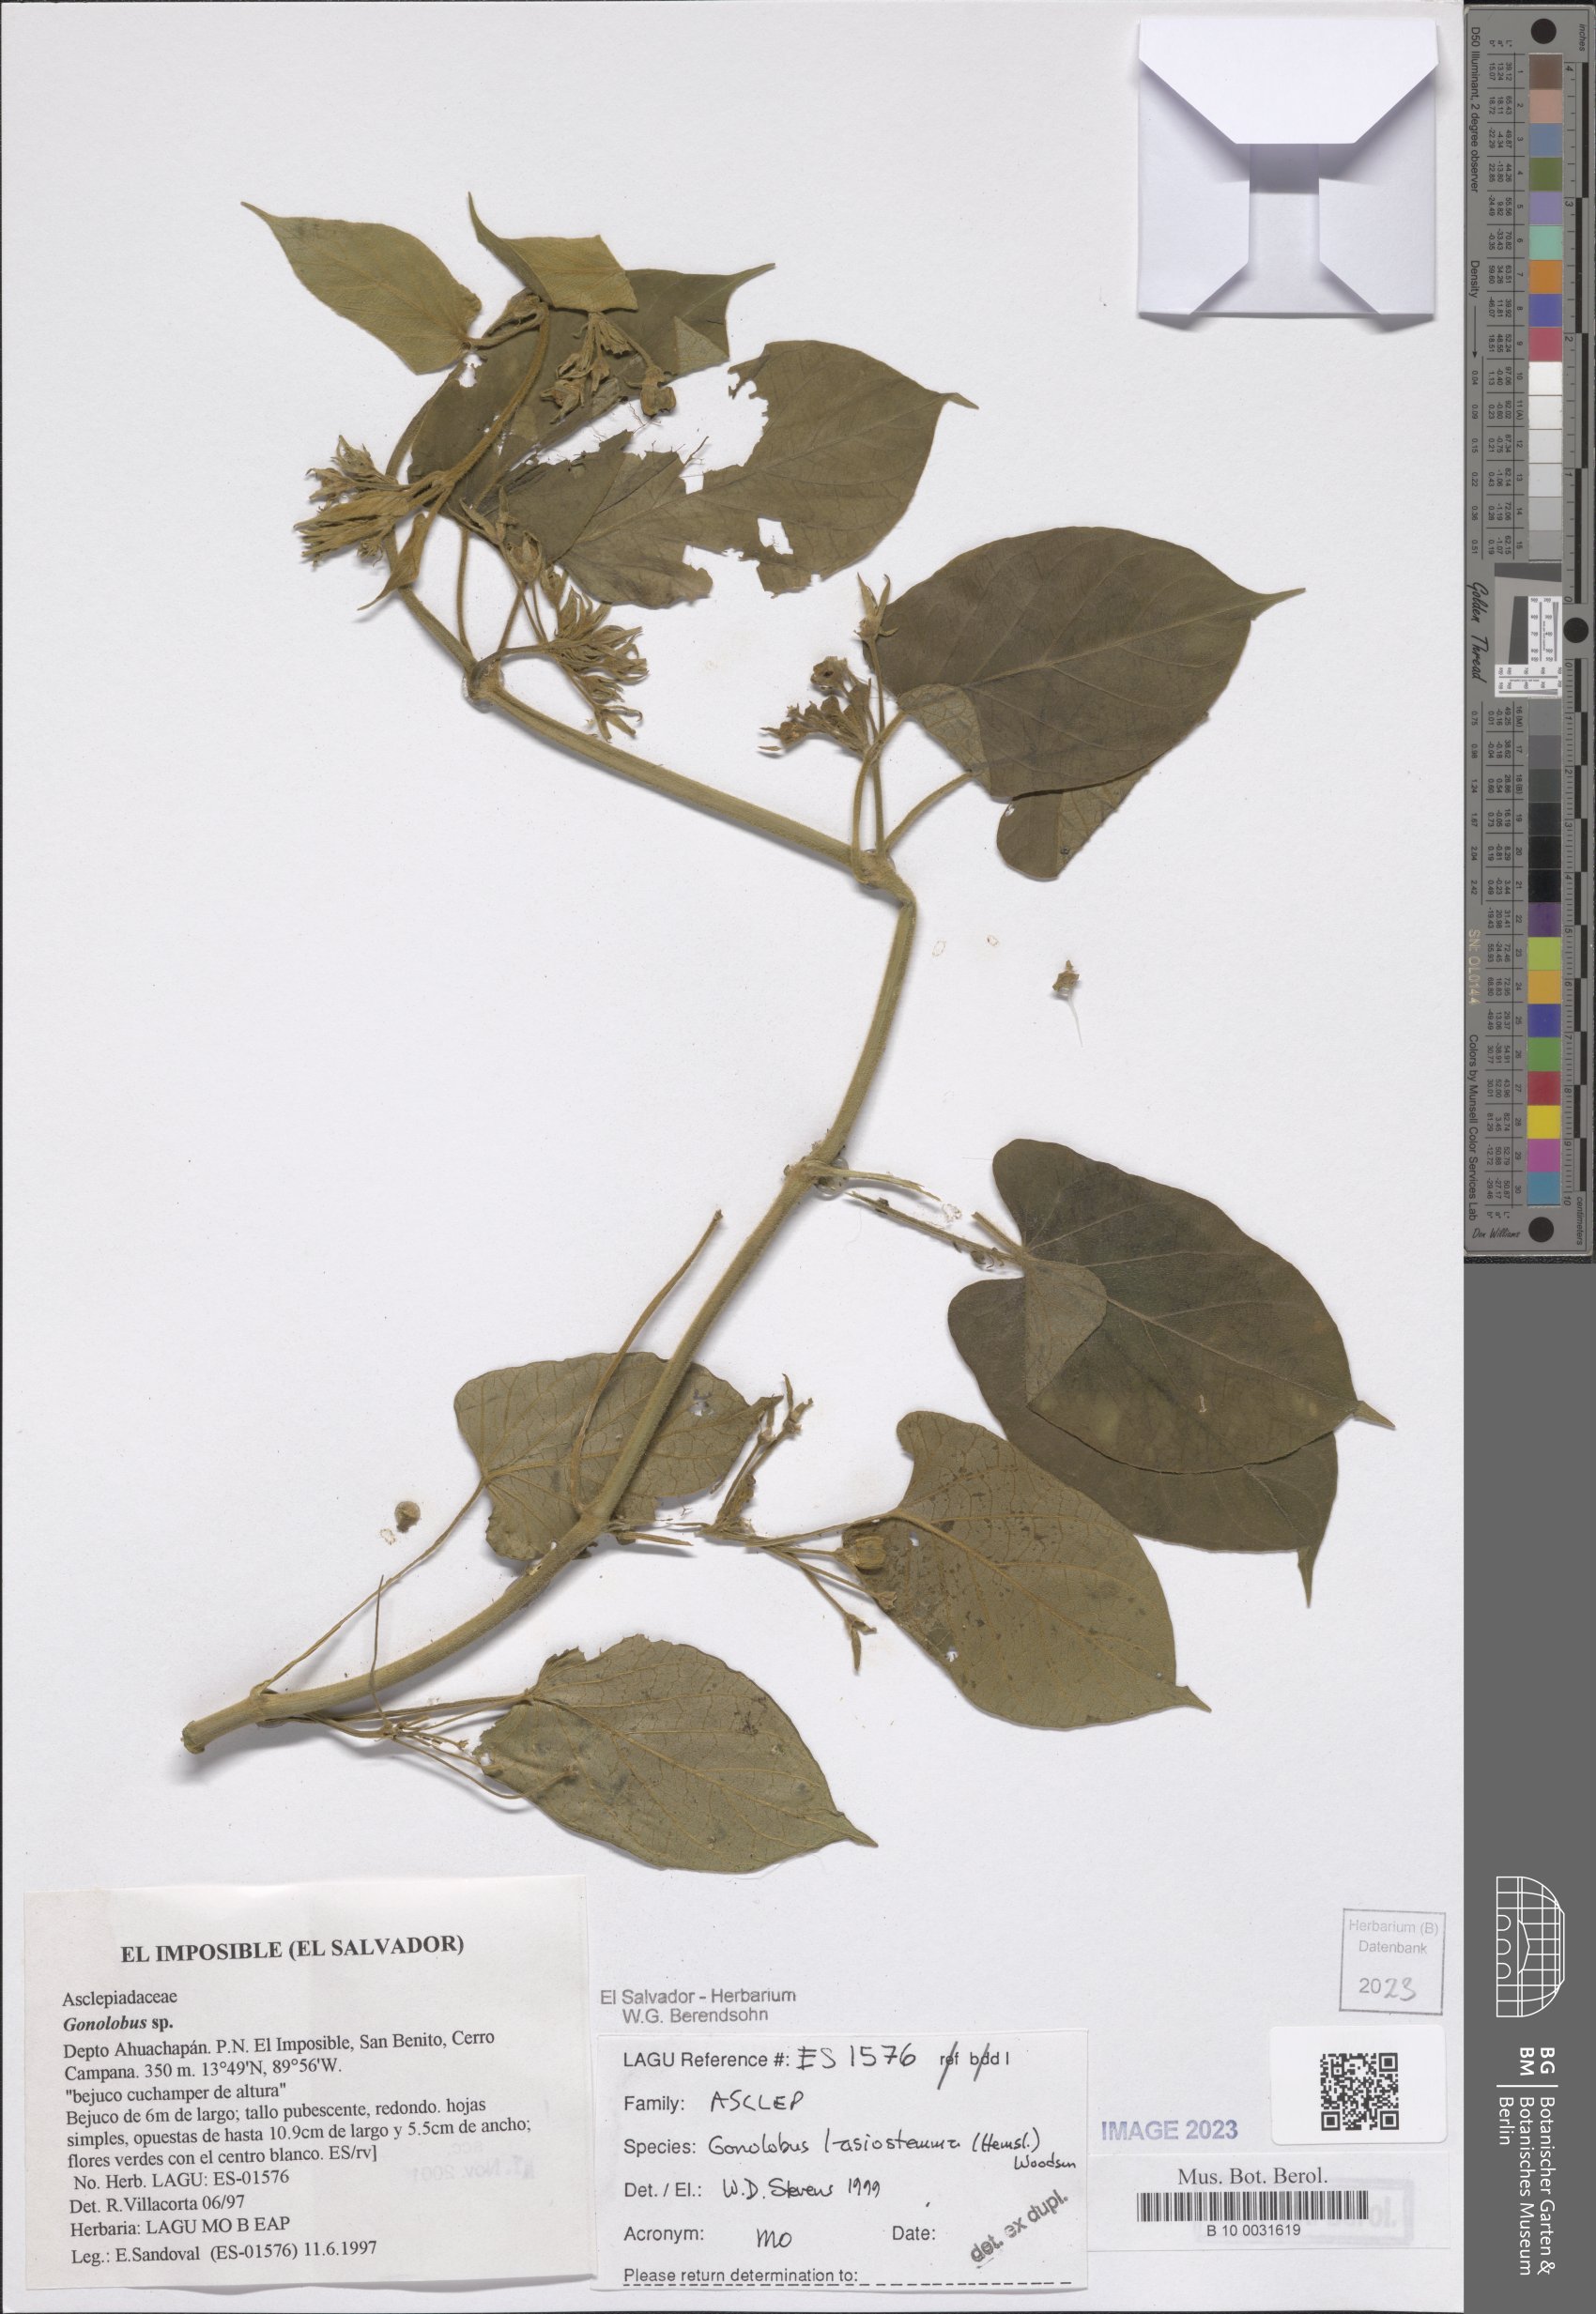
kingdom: Plantae
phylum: Tracheophyta
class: Magnoliopsida
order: Gentianales
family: Apocynaceae
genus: Gonolobus
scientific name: Gonolobus lasiostemma
